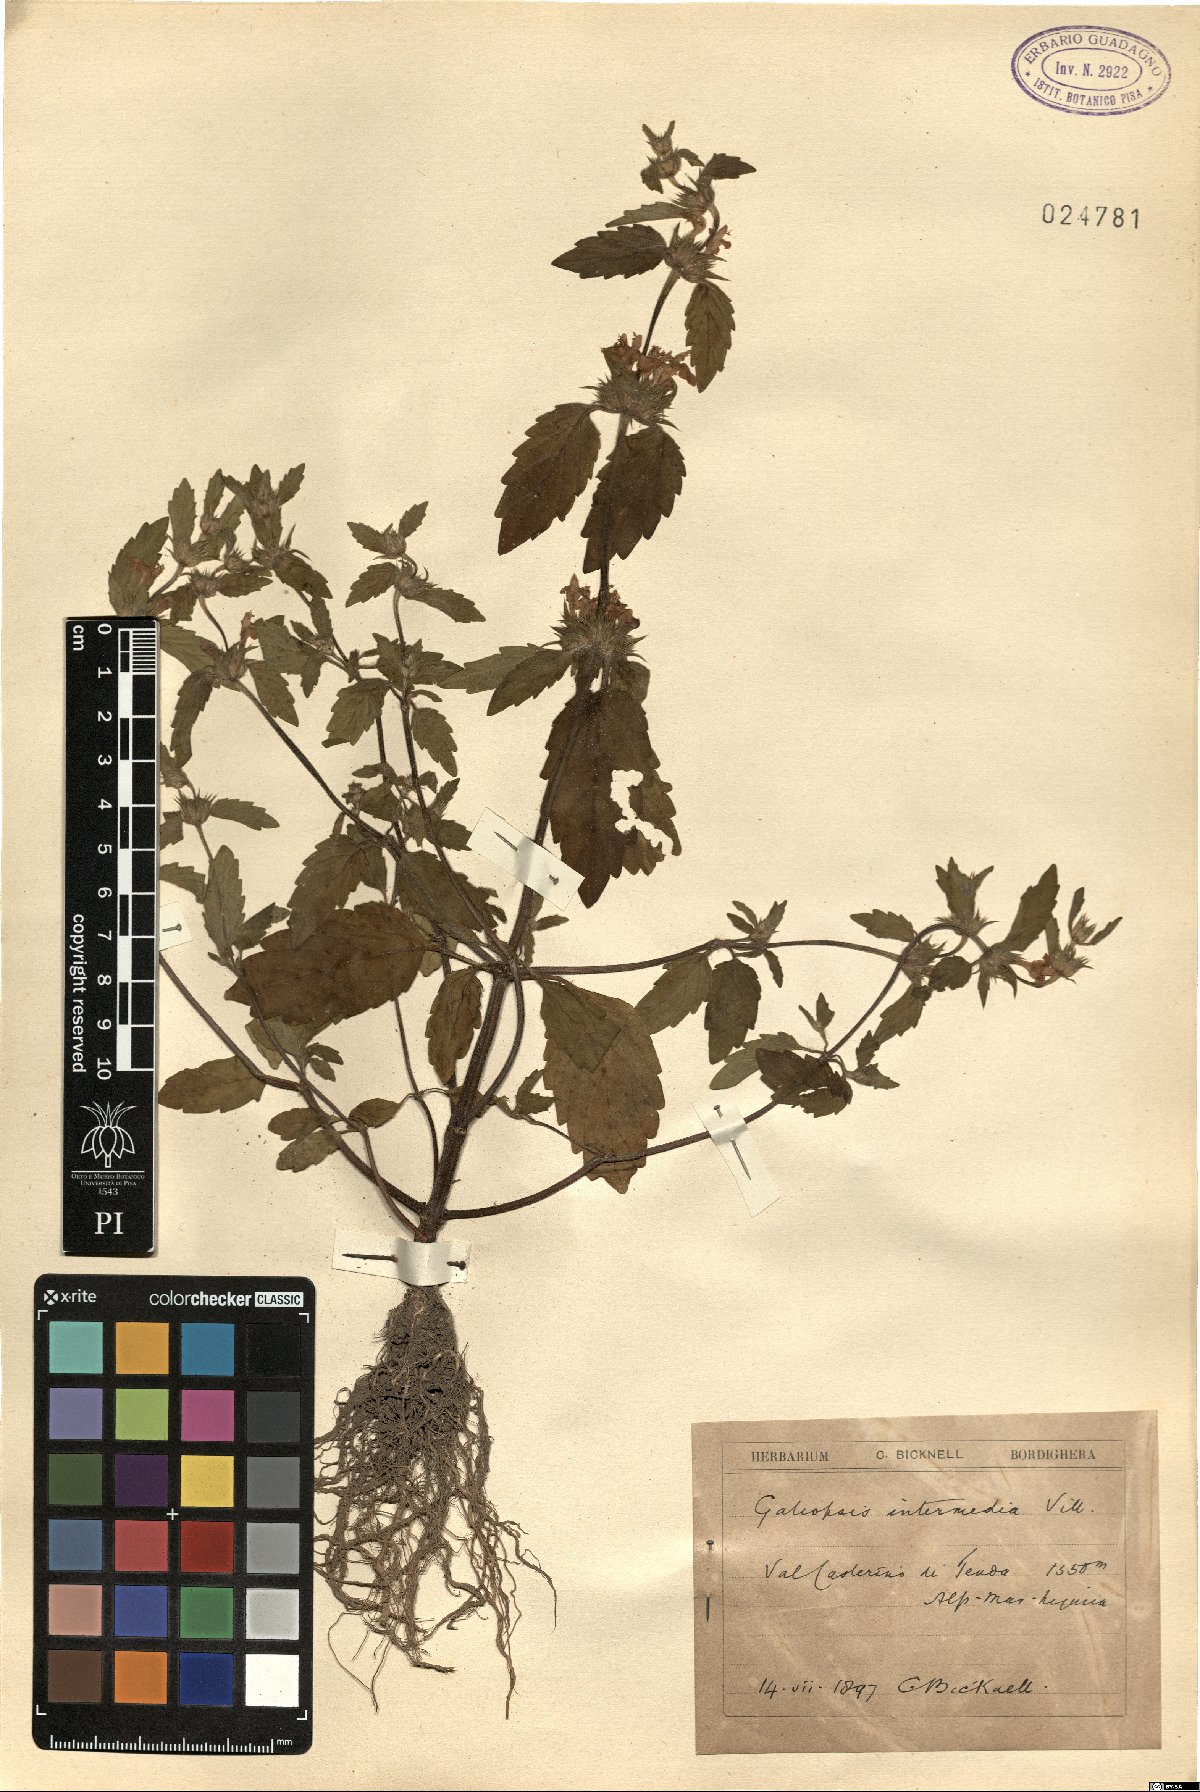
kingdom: Plantae
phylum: Tracheophyta
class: Magnoliopsida
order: Lamiales
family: Lamiaceae
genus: Galeopsis
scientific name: Galeopsis ladanum
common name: Broad-leaved hemp-nettle
